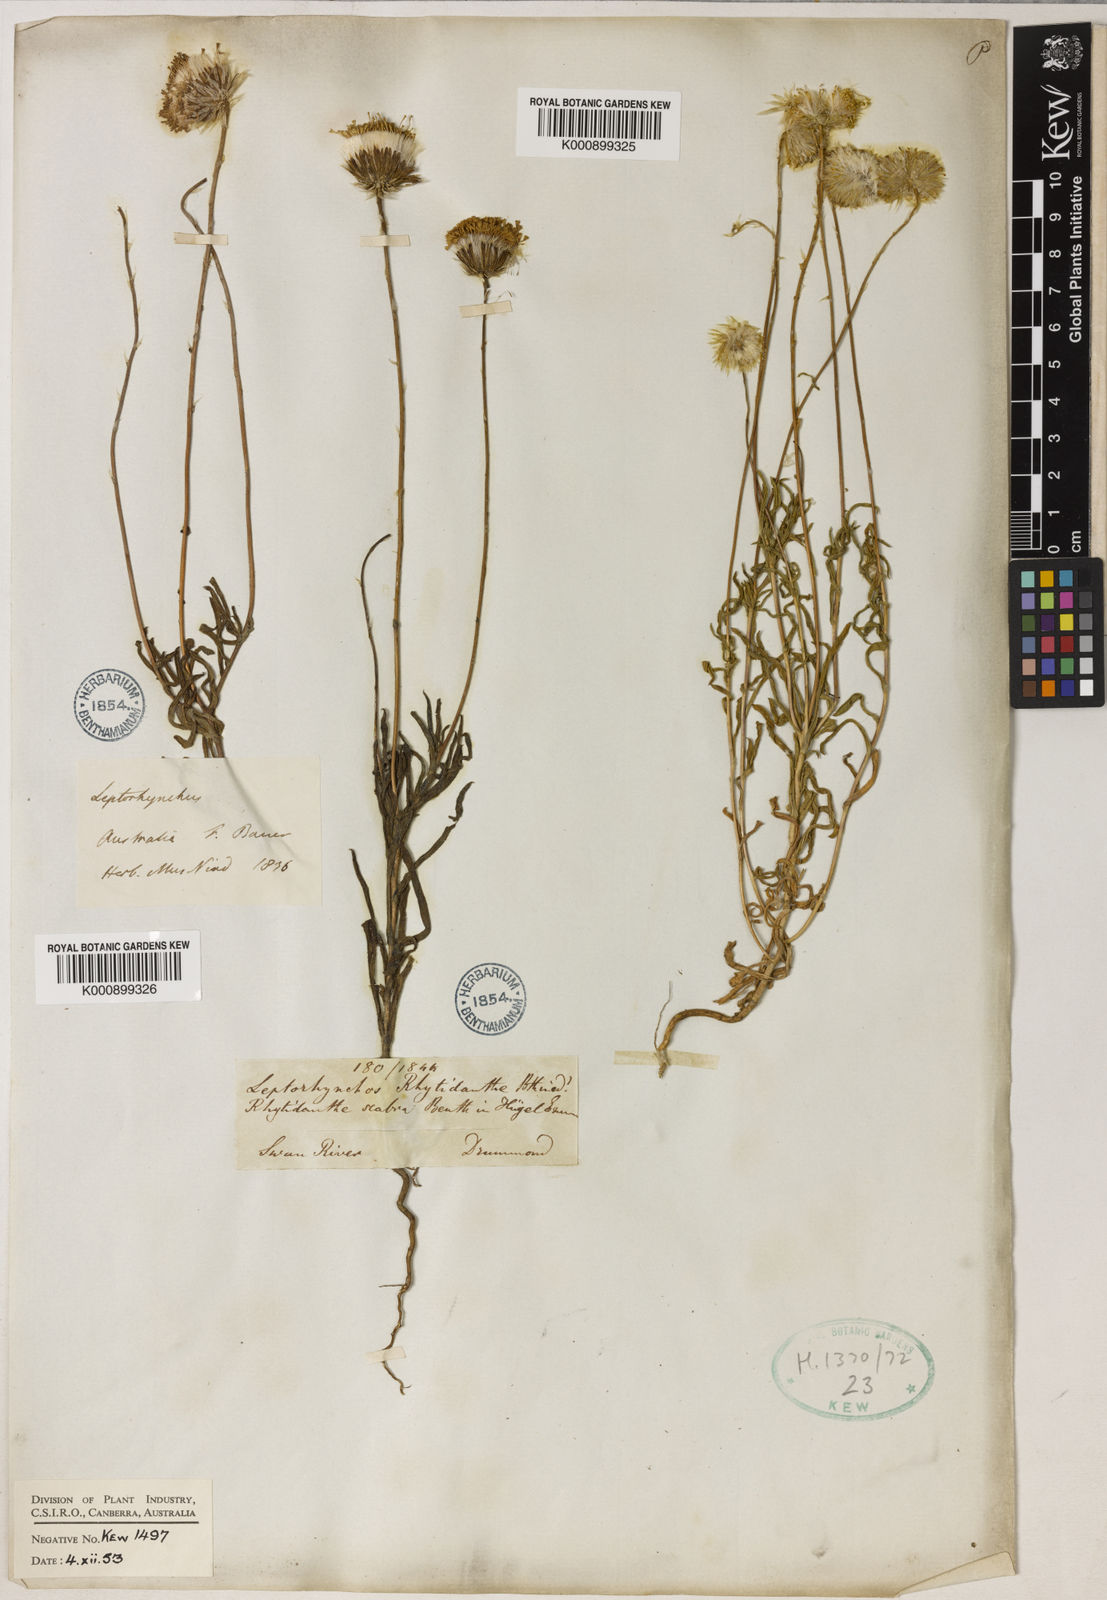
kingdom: Plantae
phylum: Tracheophyta
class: Magnoliopsida
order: Asterales
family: Asteraceae
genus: Leptorhynchos
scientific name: Leptorhynchos elongatus
